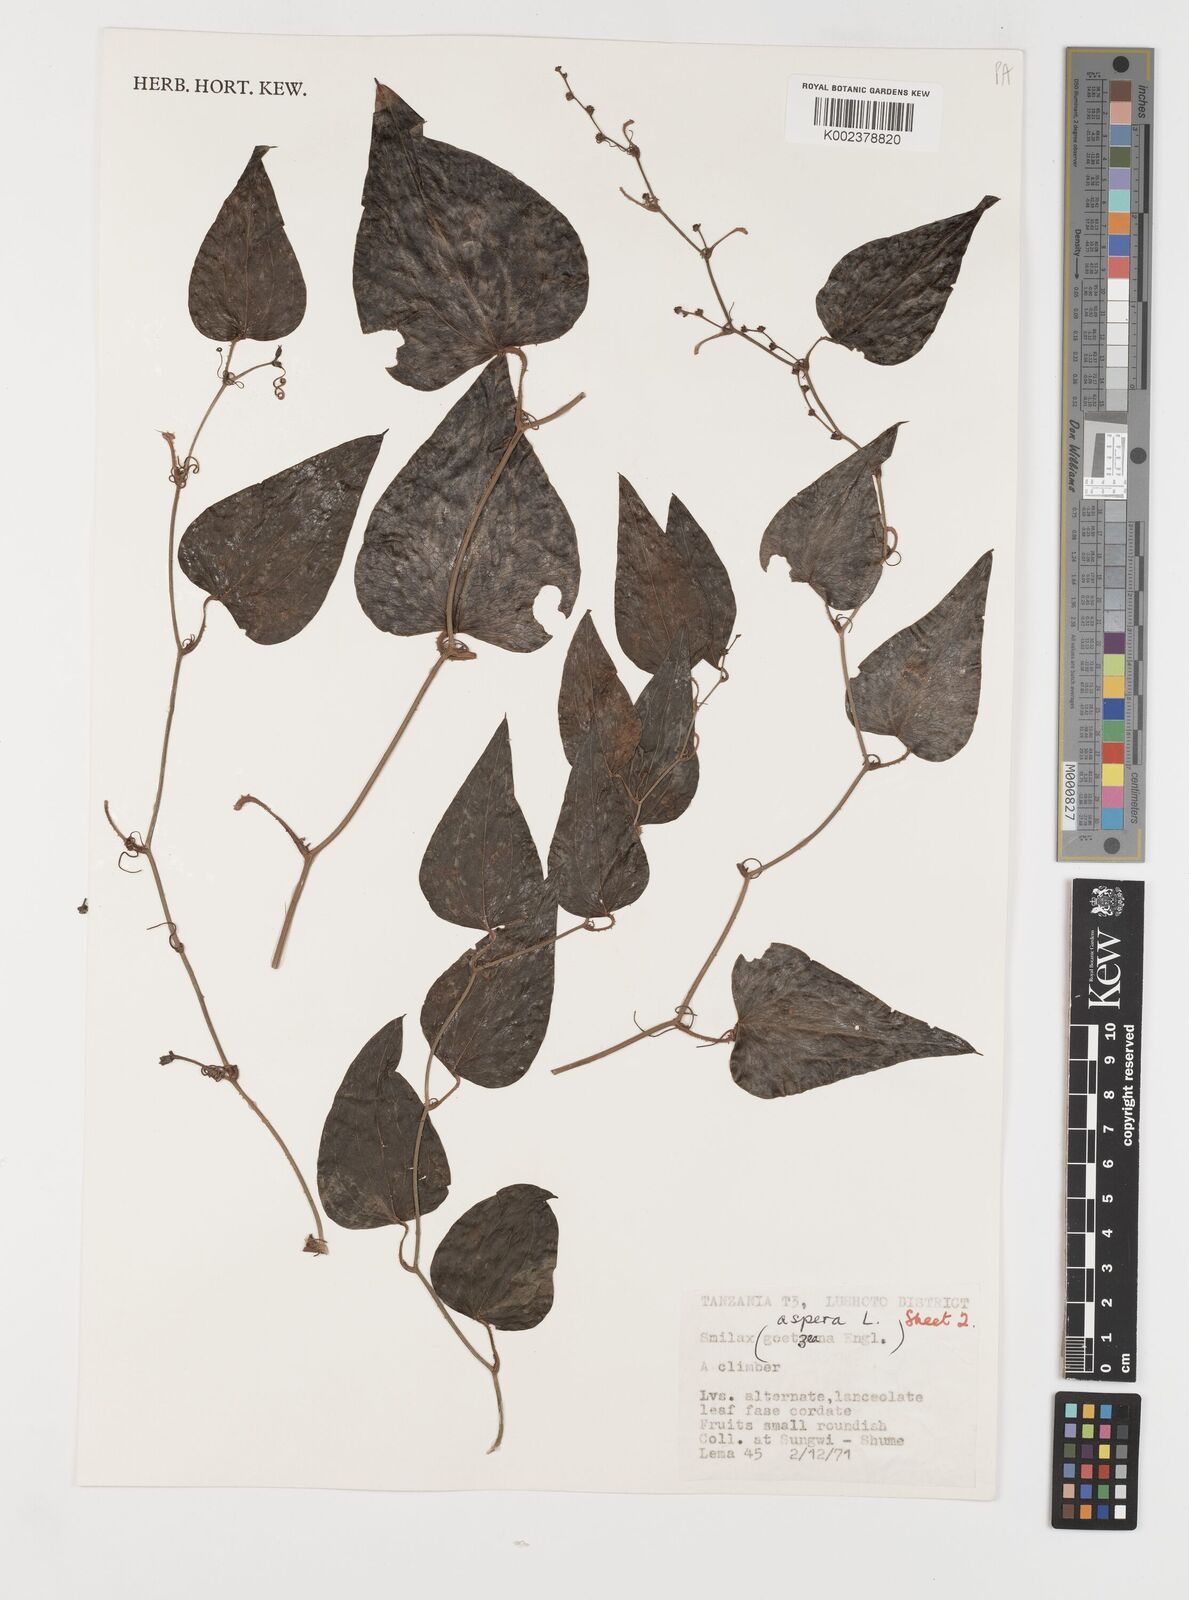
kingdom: Plantae
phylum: Tracheophyta
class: Liliopsida
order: Liliales
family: Smilacaceae
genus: Smilax
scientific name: Smilax aspera
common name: Common smilax
